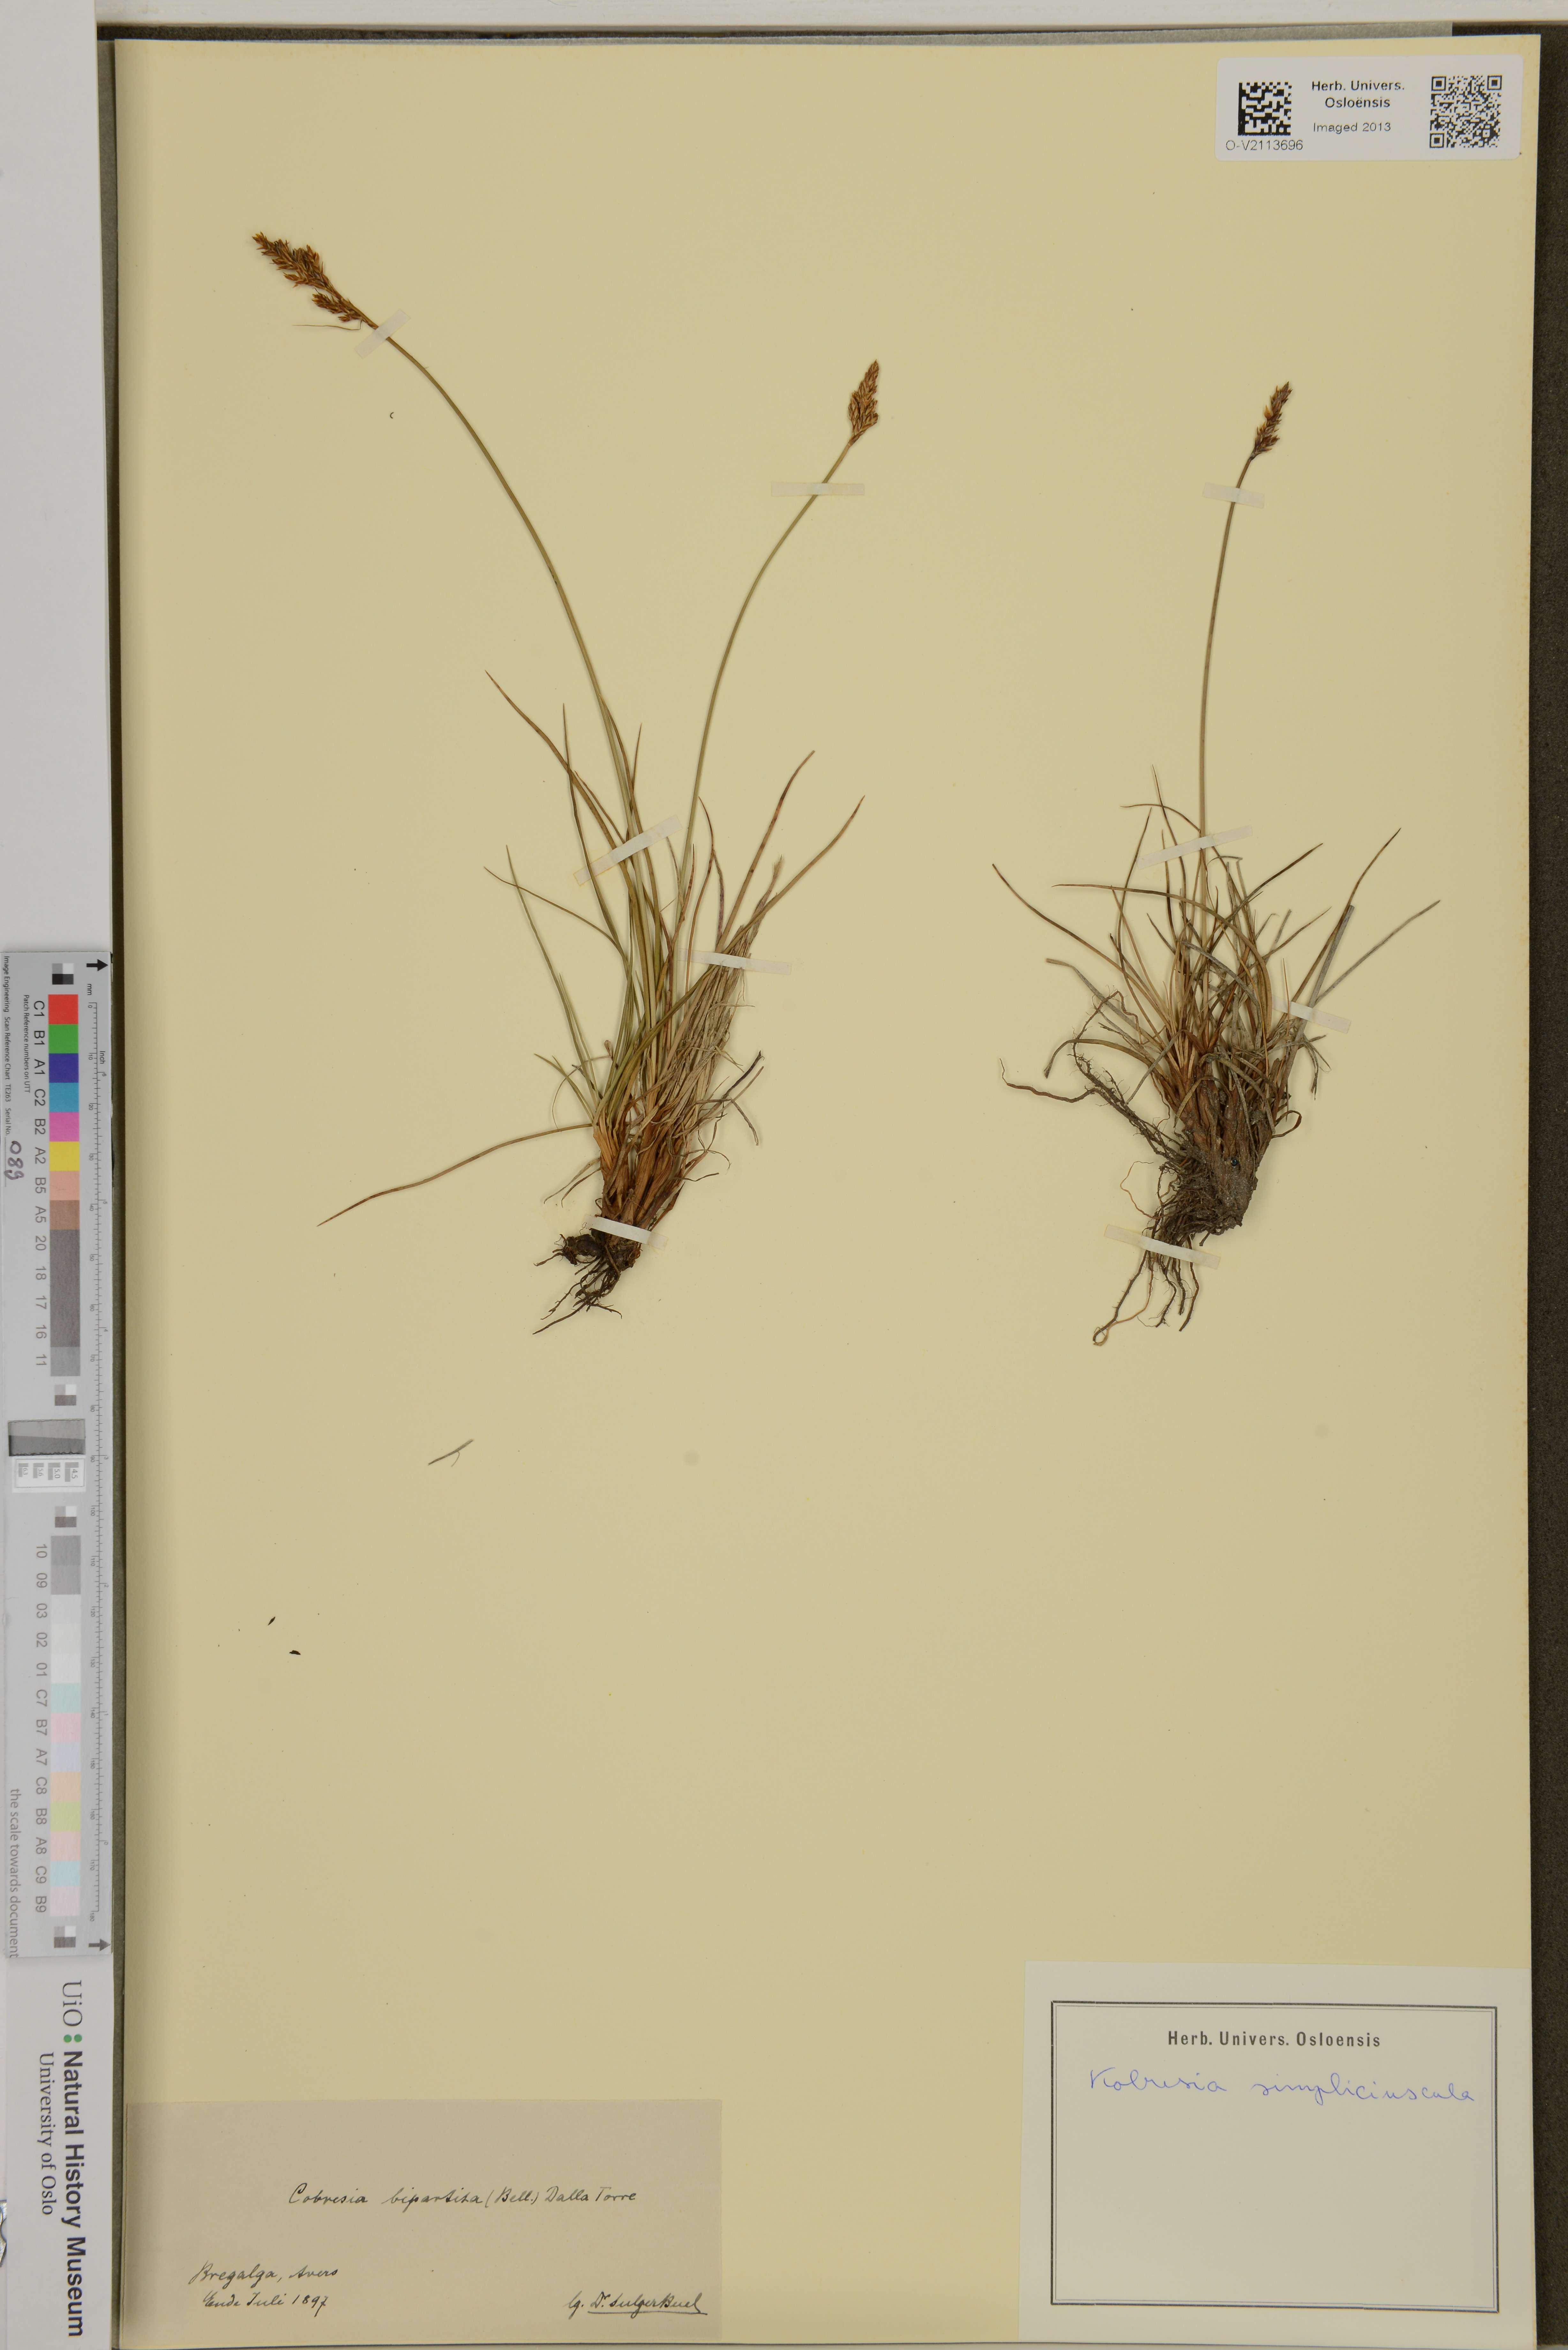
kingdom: Plantae
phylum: Tracheophyta
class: Liliopsida
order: Poales
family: Cyperaceae
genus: Carex
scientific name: Carex simpliciuscula
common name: Simple bog sedge
